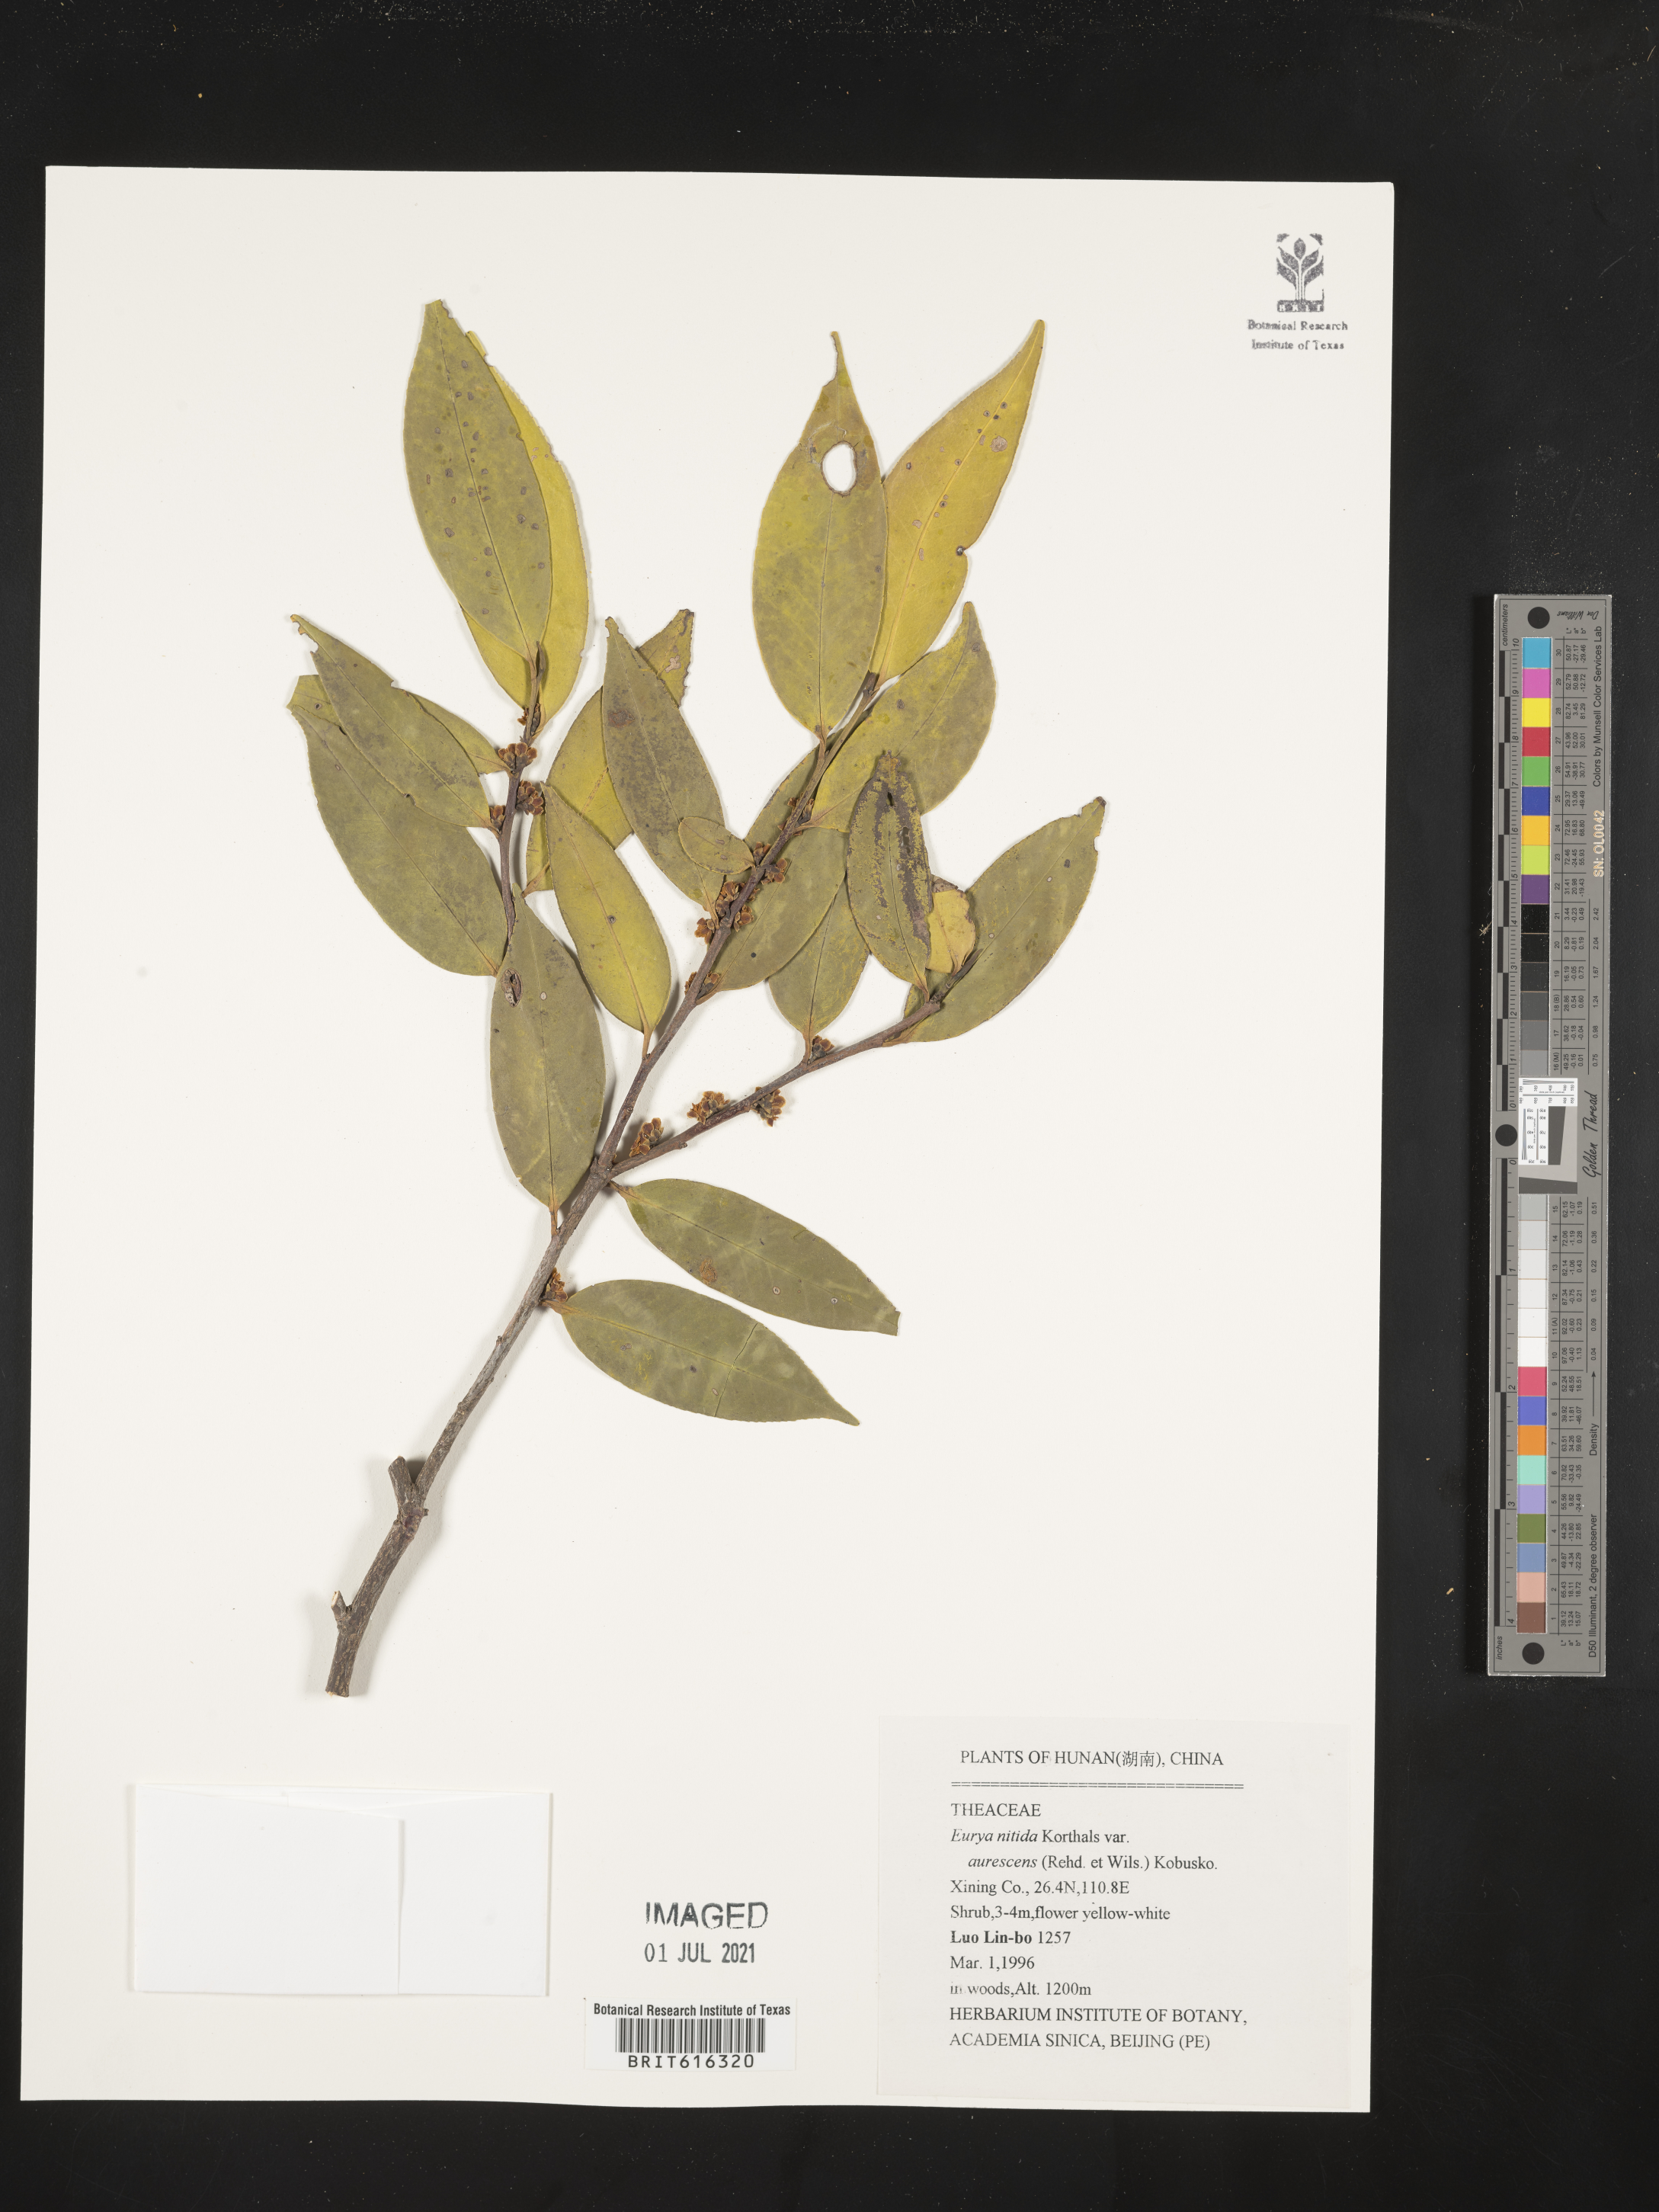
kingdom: Plantae
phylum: Tracheophyta
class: Magnoliopsida
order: Ericales
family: Pentaphylacaceae
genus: Eurya
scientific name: Eurya nitida
